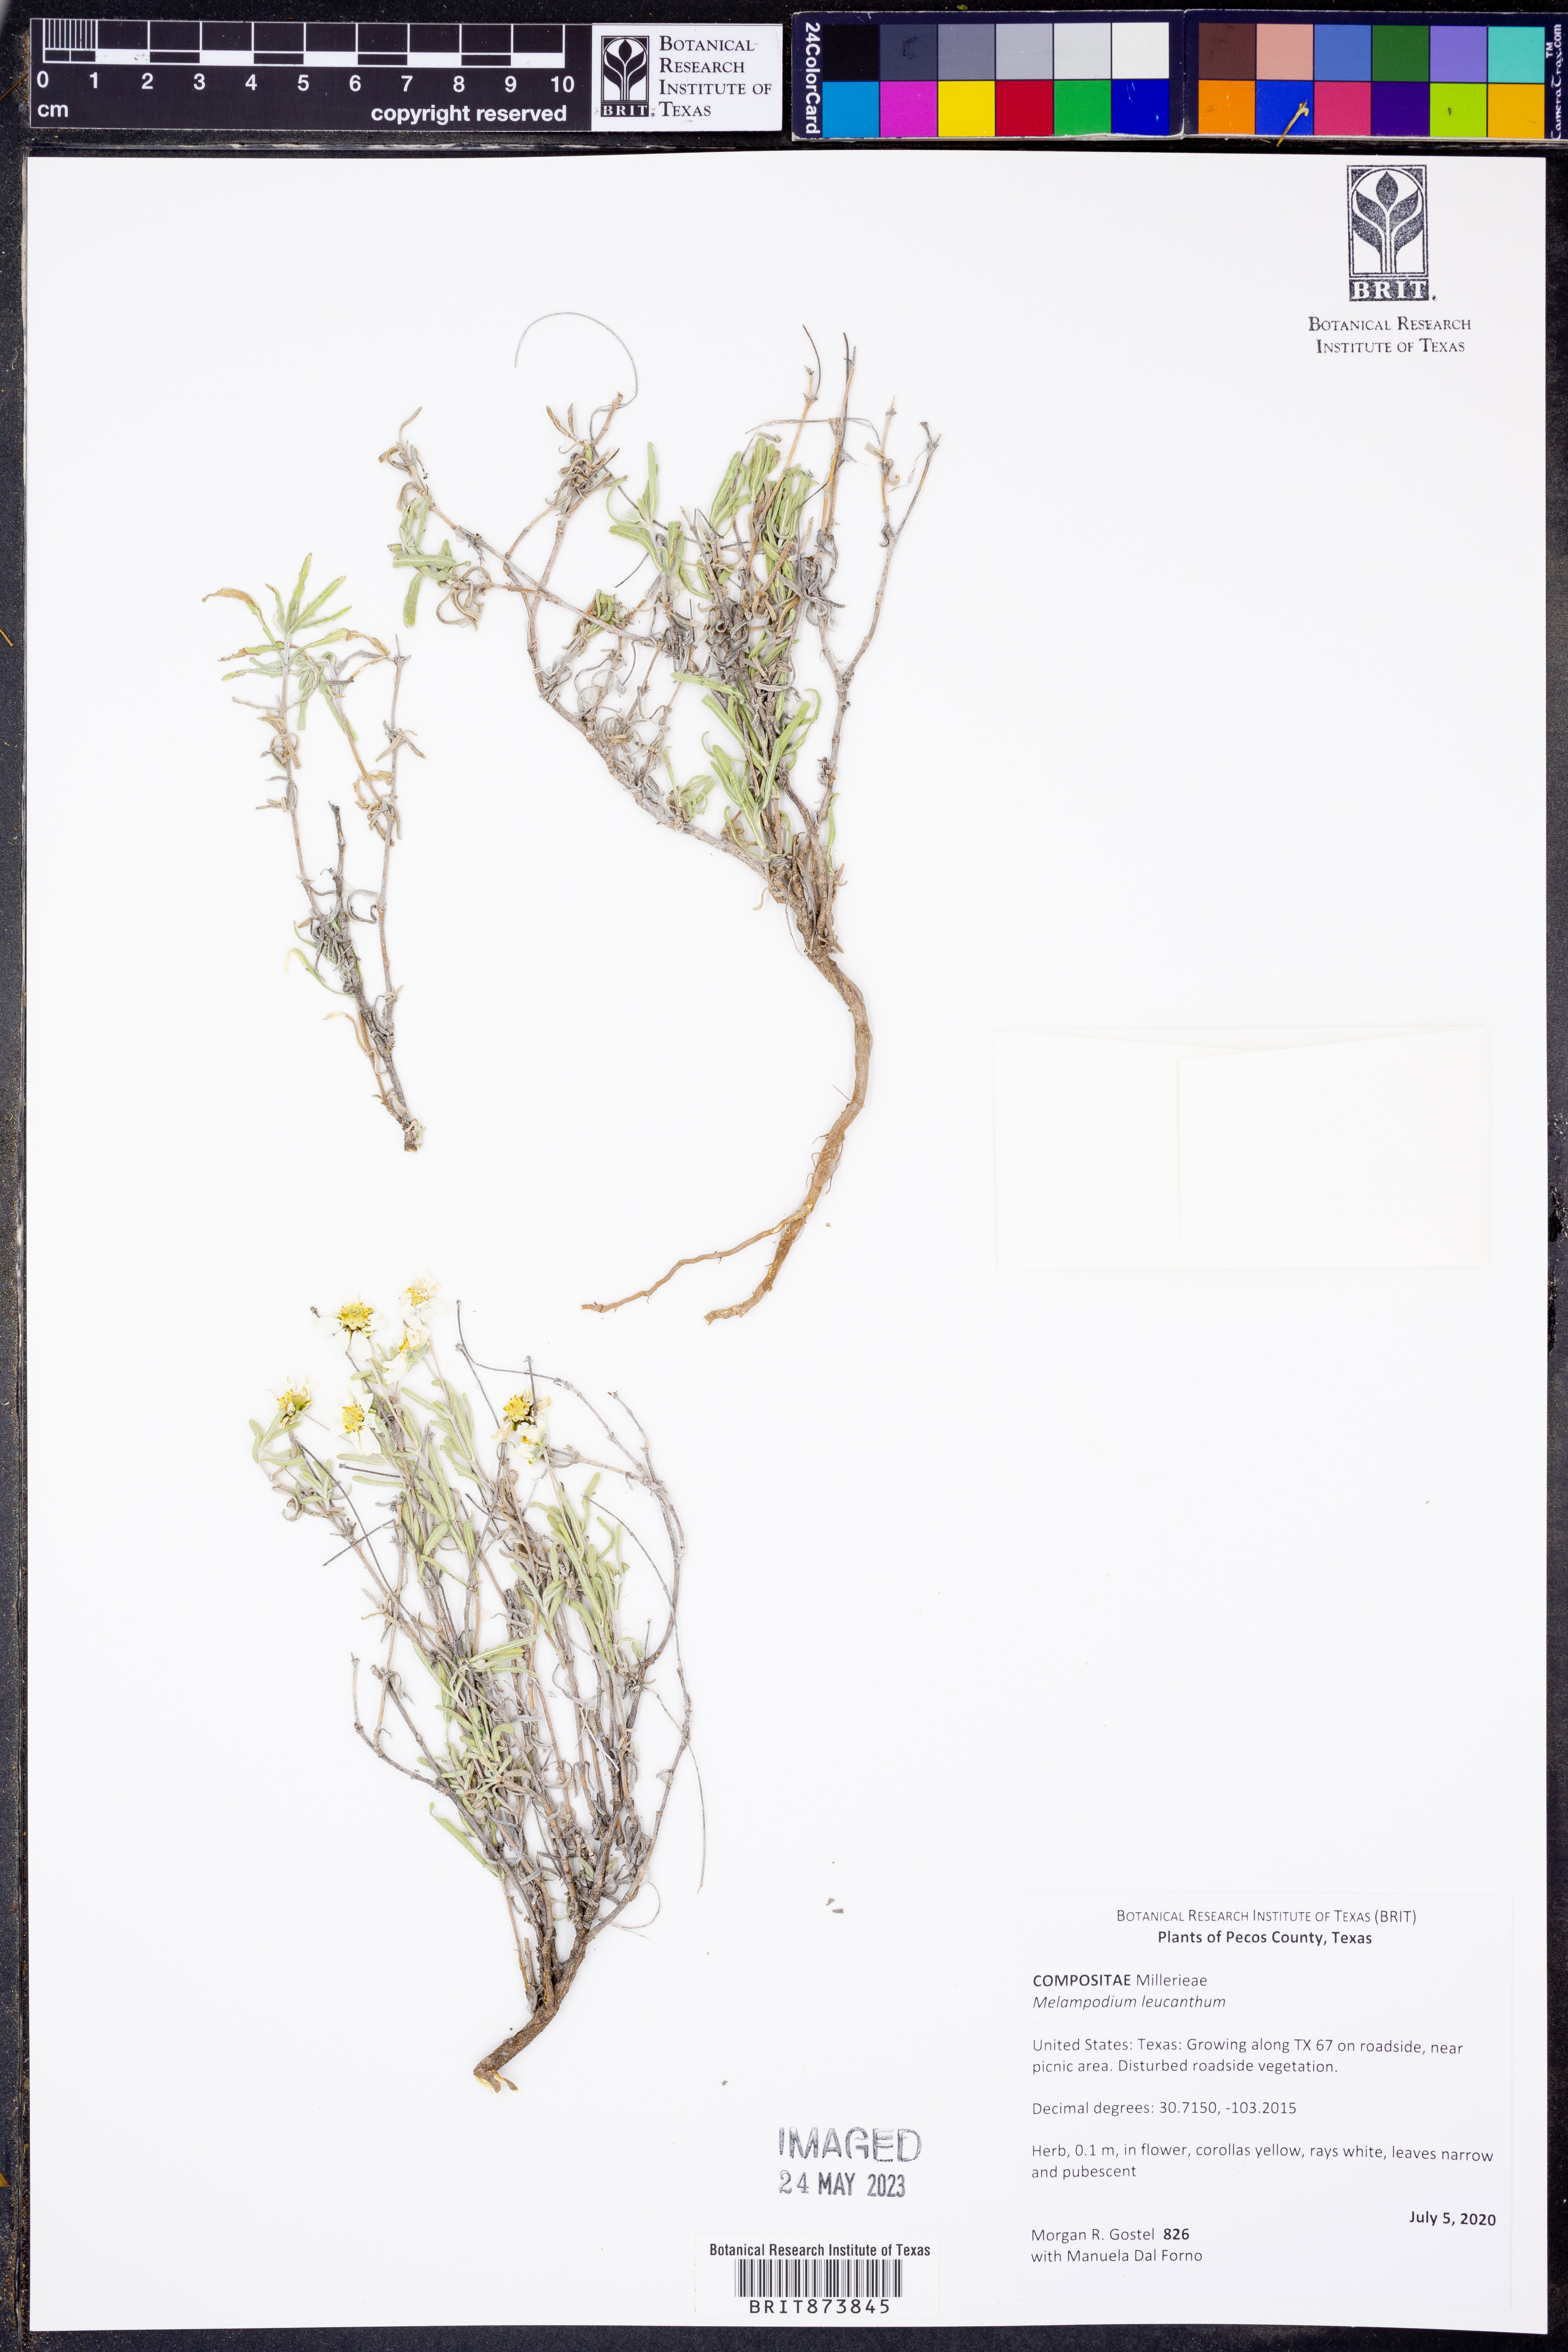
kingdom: Plantae
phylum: Tracheophyta
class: Magnoliopsida
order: Asterales
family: Asteraceae
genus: Melampodium
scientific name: Melampodium leucanthum
